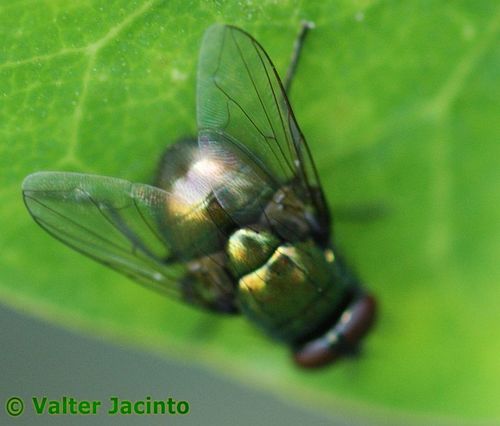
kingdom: Animalia
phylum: Arthropoda
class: Insecta
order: Diptera
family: Muscidae
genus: Neomyia
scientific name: Neomyia cornicina
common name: House fly
